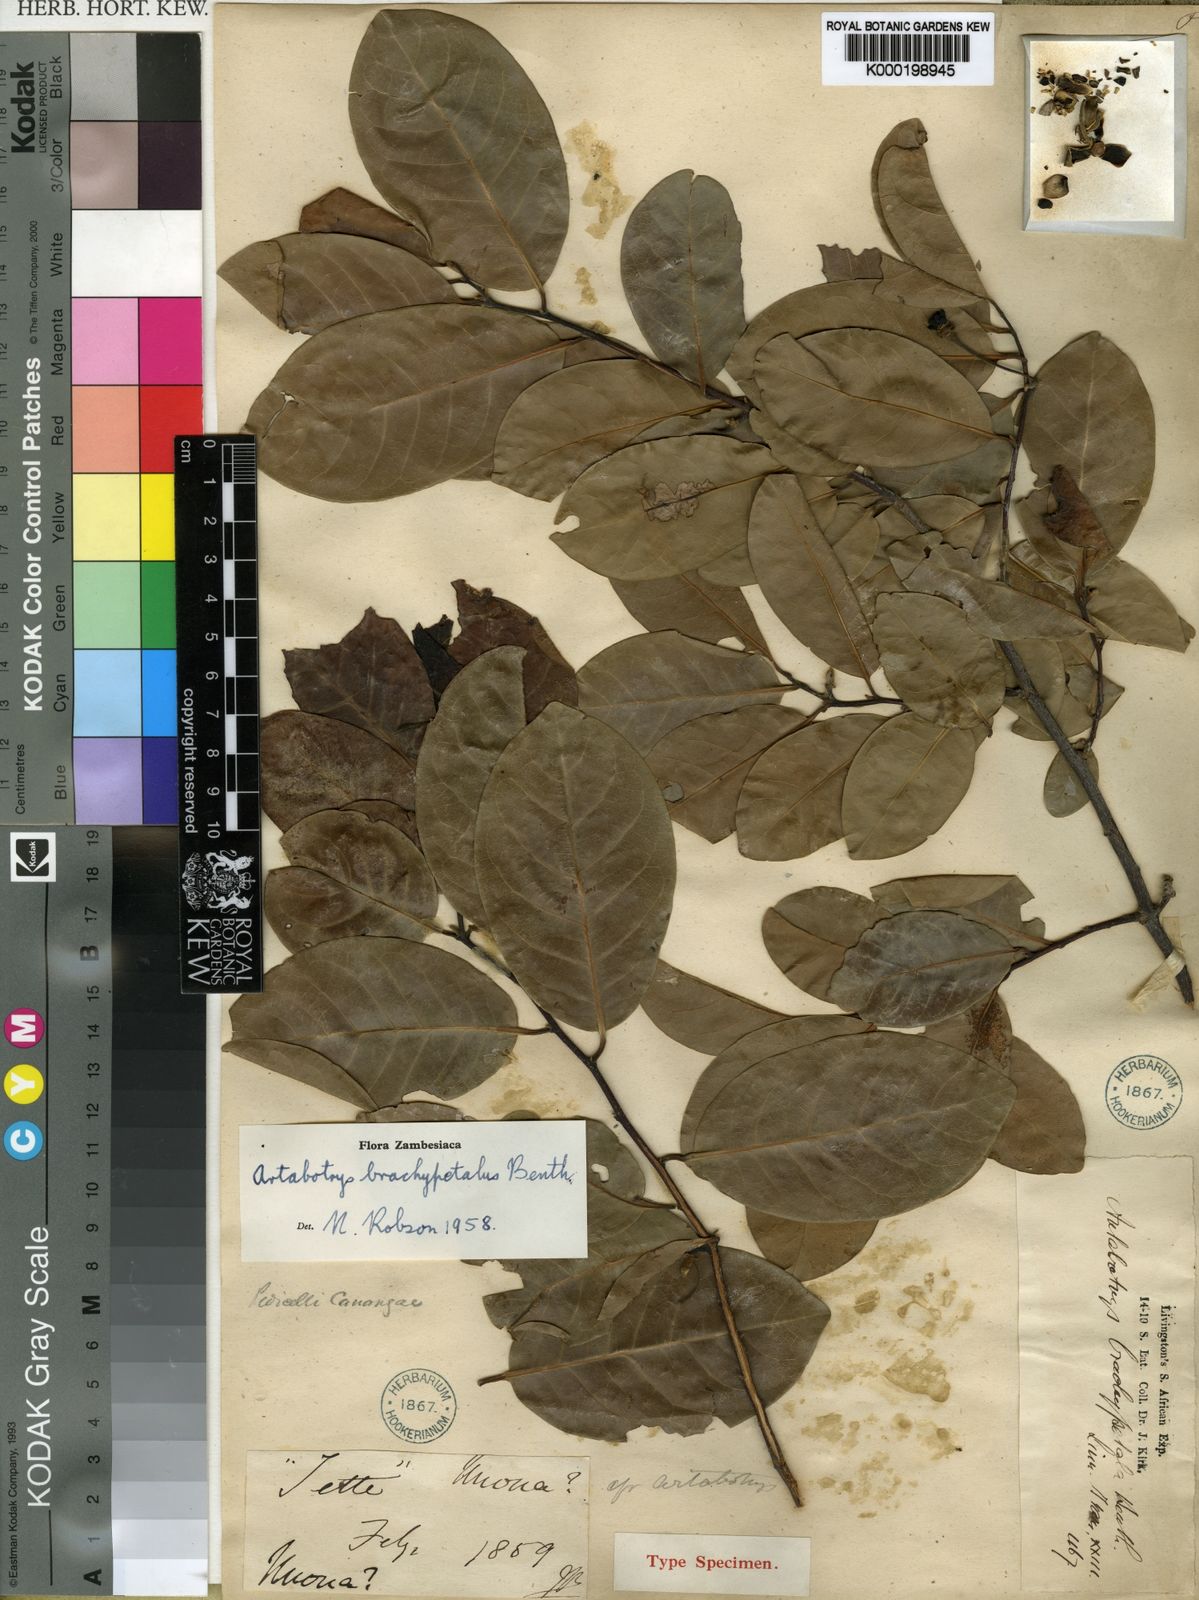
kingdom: Plantae
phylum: Tracheophyta
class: Magnoliopsida
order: Magnoliales
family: Annonaceae
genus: Artabotrys
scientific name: Artabotrys brachypetalus
